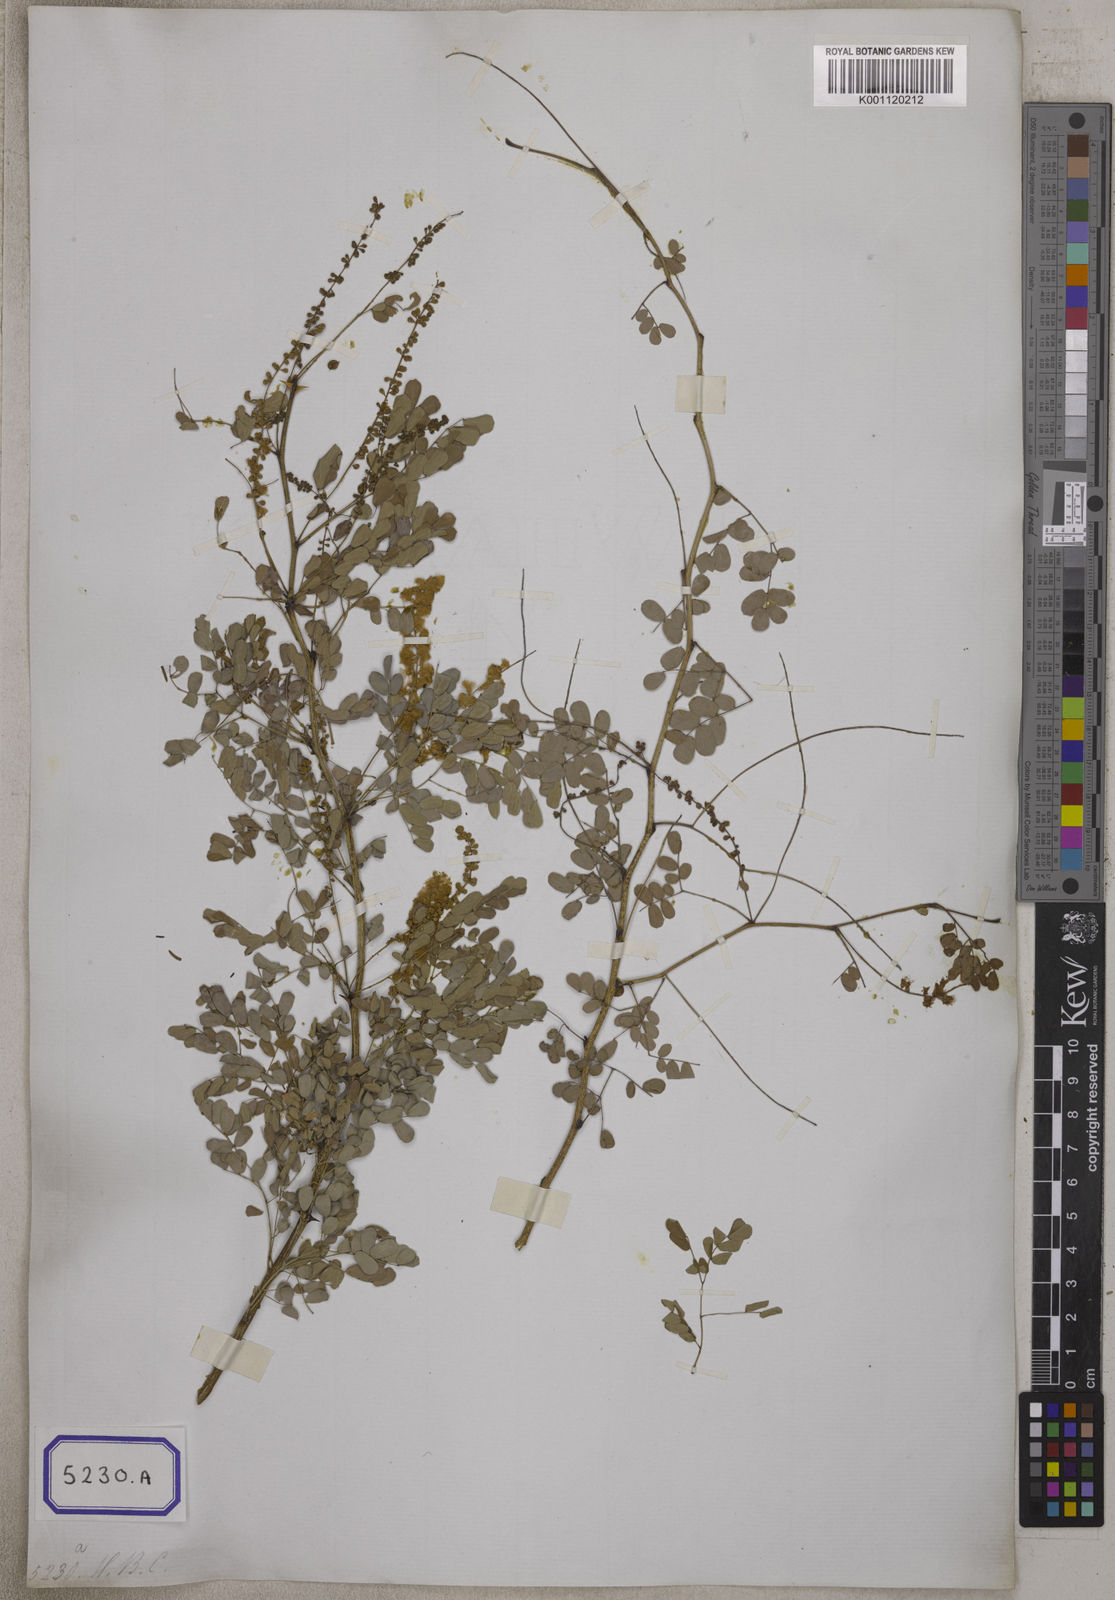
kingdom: Plantae
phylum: Tracheophyta
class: Magnoliopsida
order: Fabales
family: Fabaceae
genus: Senegalia
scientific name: Senegalia modesta
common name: Amritsar-gum
